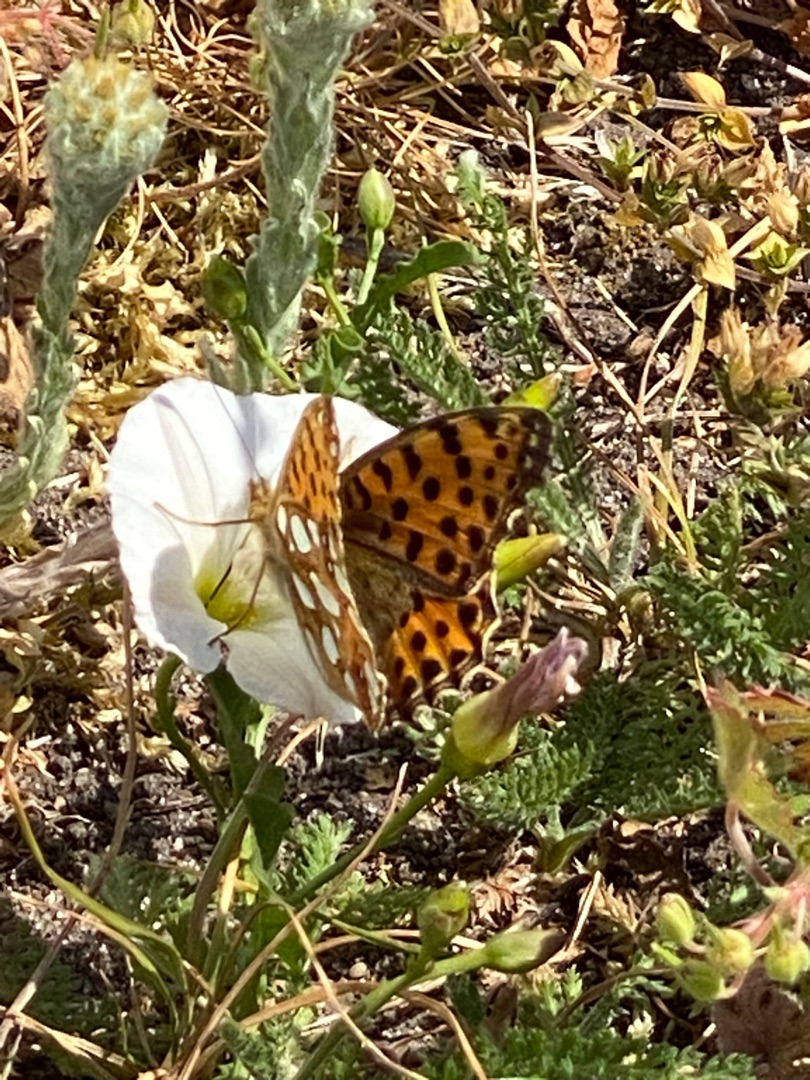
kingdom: Animalia
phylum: Arthropoda
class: Insecta
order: Lepidoptera
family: Nymphalidae
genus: Issoria
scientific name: Issoria lathonia
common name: Storplettet perlemorsommerfugl
